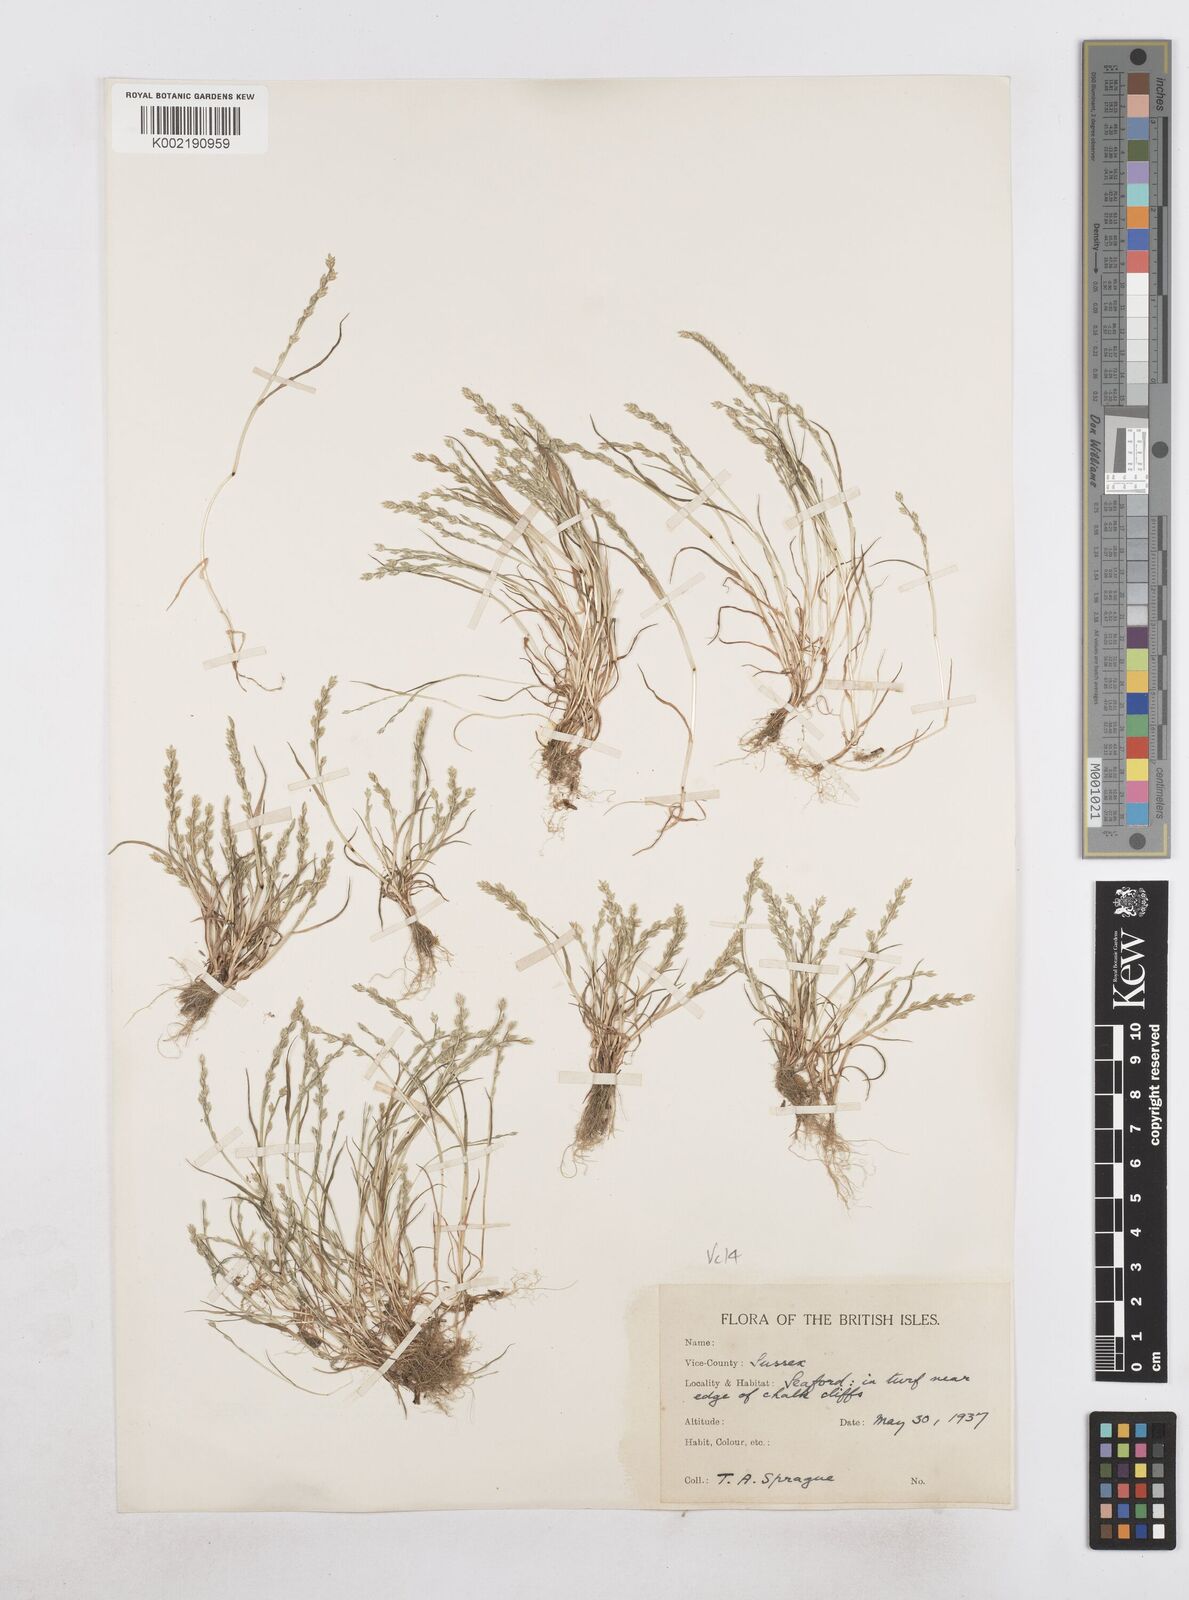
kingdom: Plantae
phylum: Tracheophyta
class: Liliopsida
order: Poales
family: Poaceae
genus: Catapodium
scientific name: Catapodium marinum
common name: Sea fern-grass
